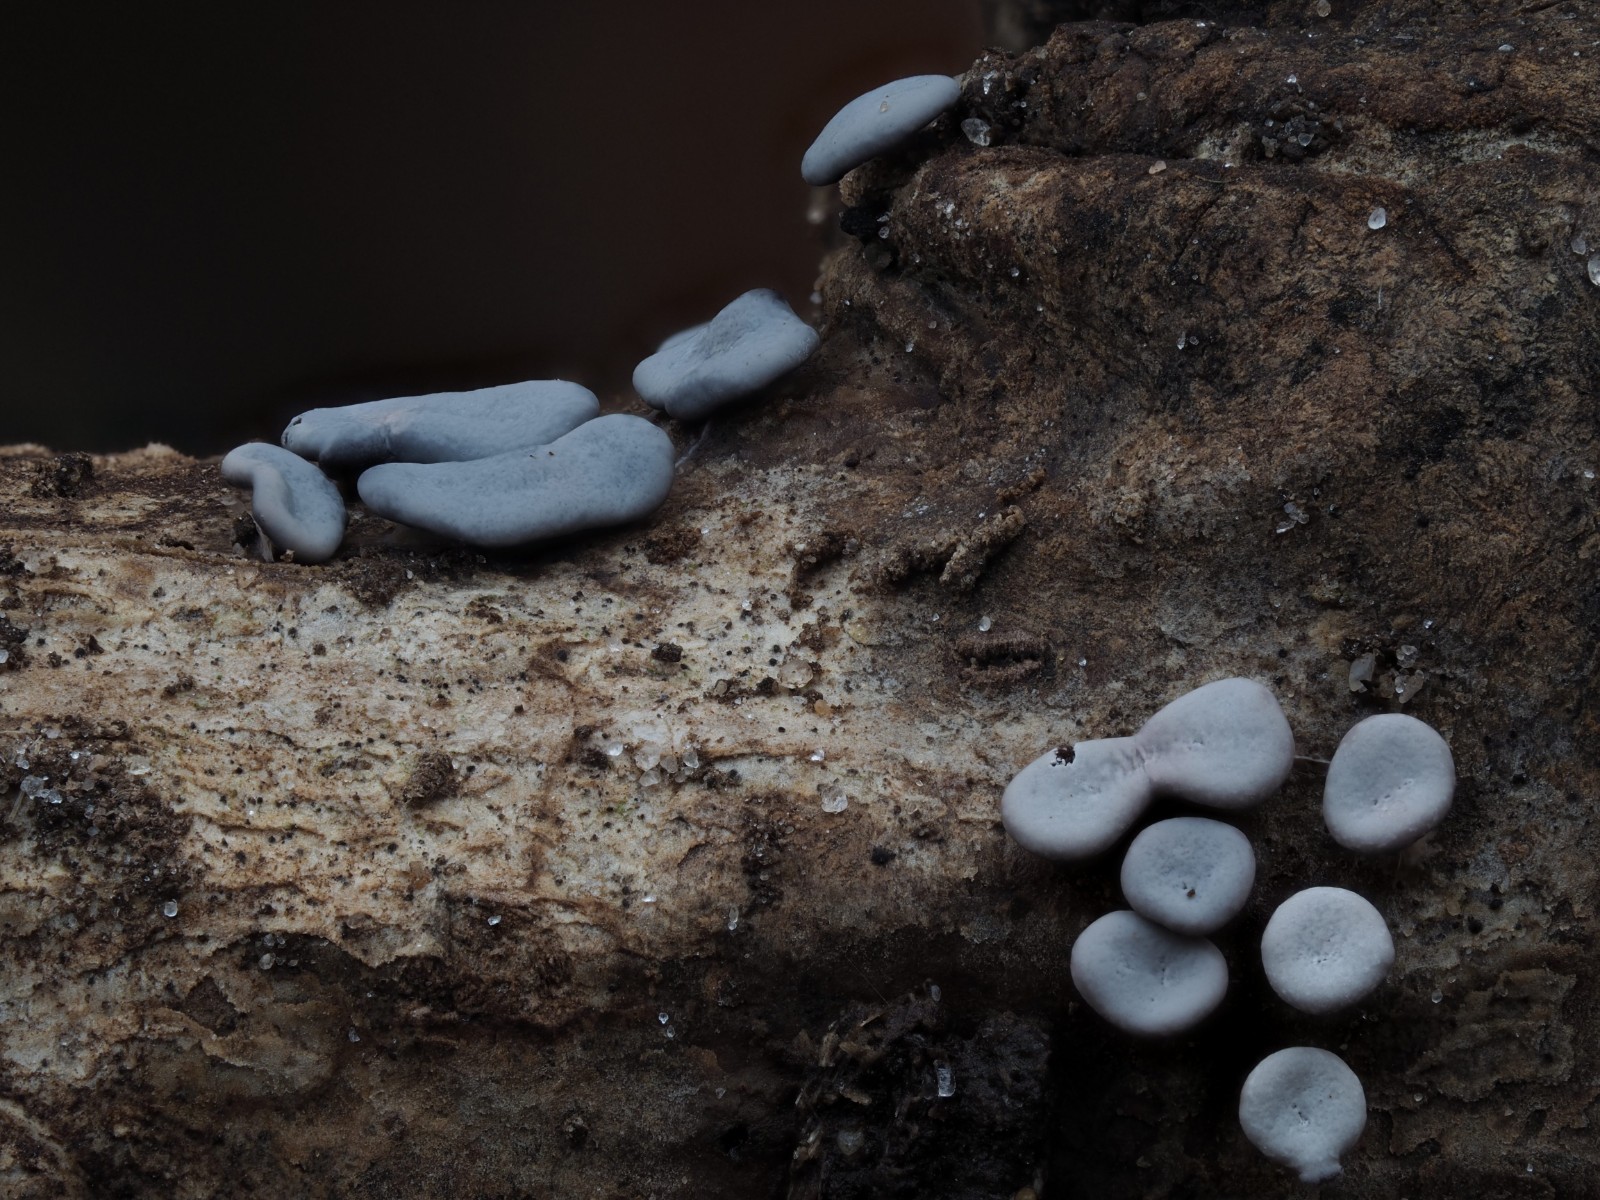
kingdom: Protozoa
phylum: Mycetozoa
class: Myxomycetes
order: Physarales
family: Didymiaceae
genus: Diderma
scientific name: Diderma hemisphaericum
